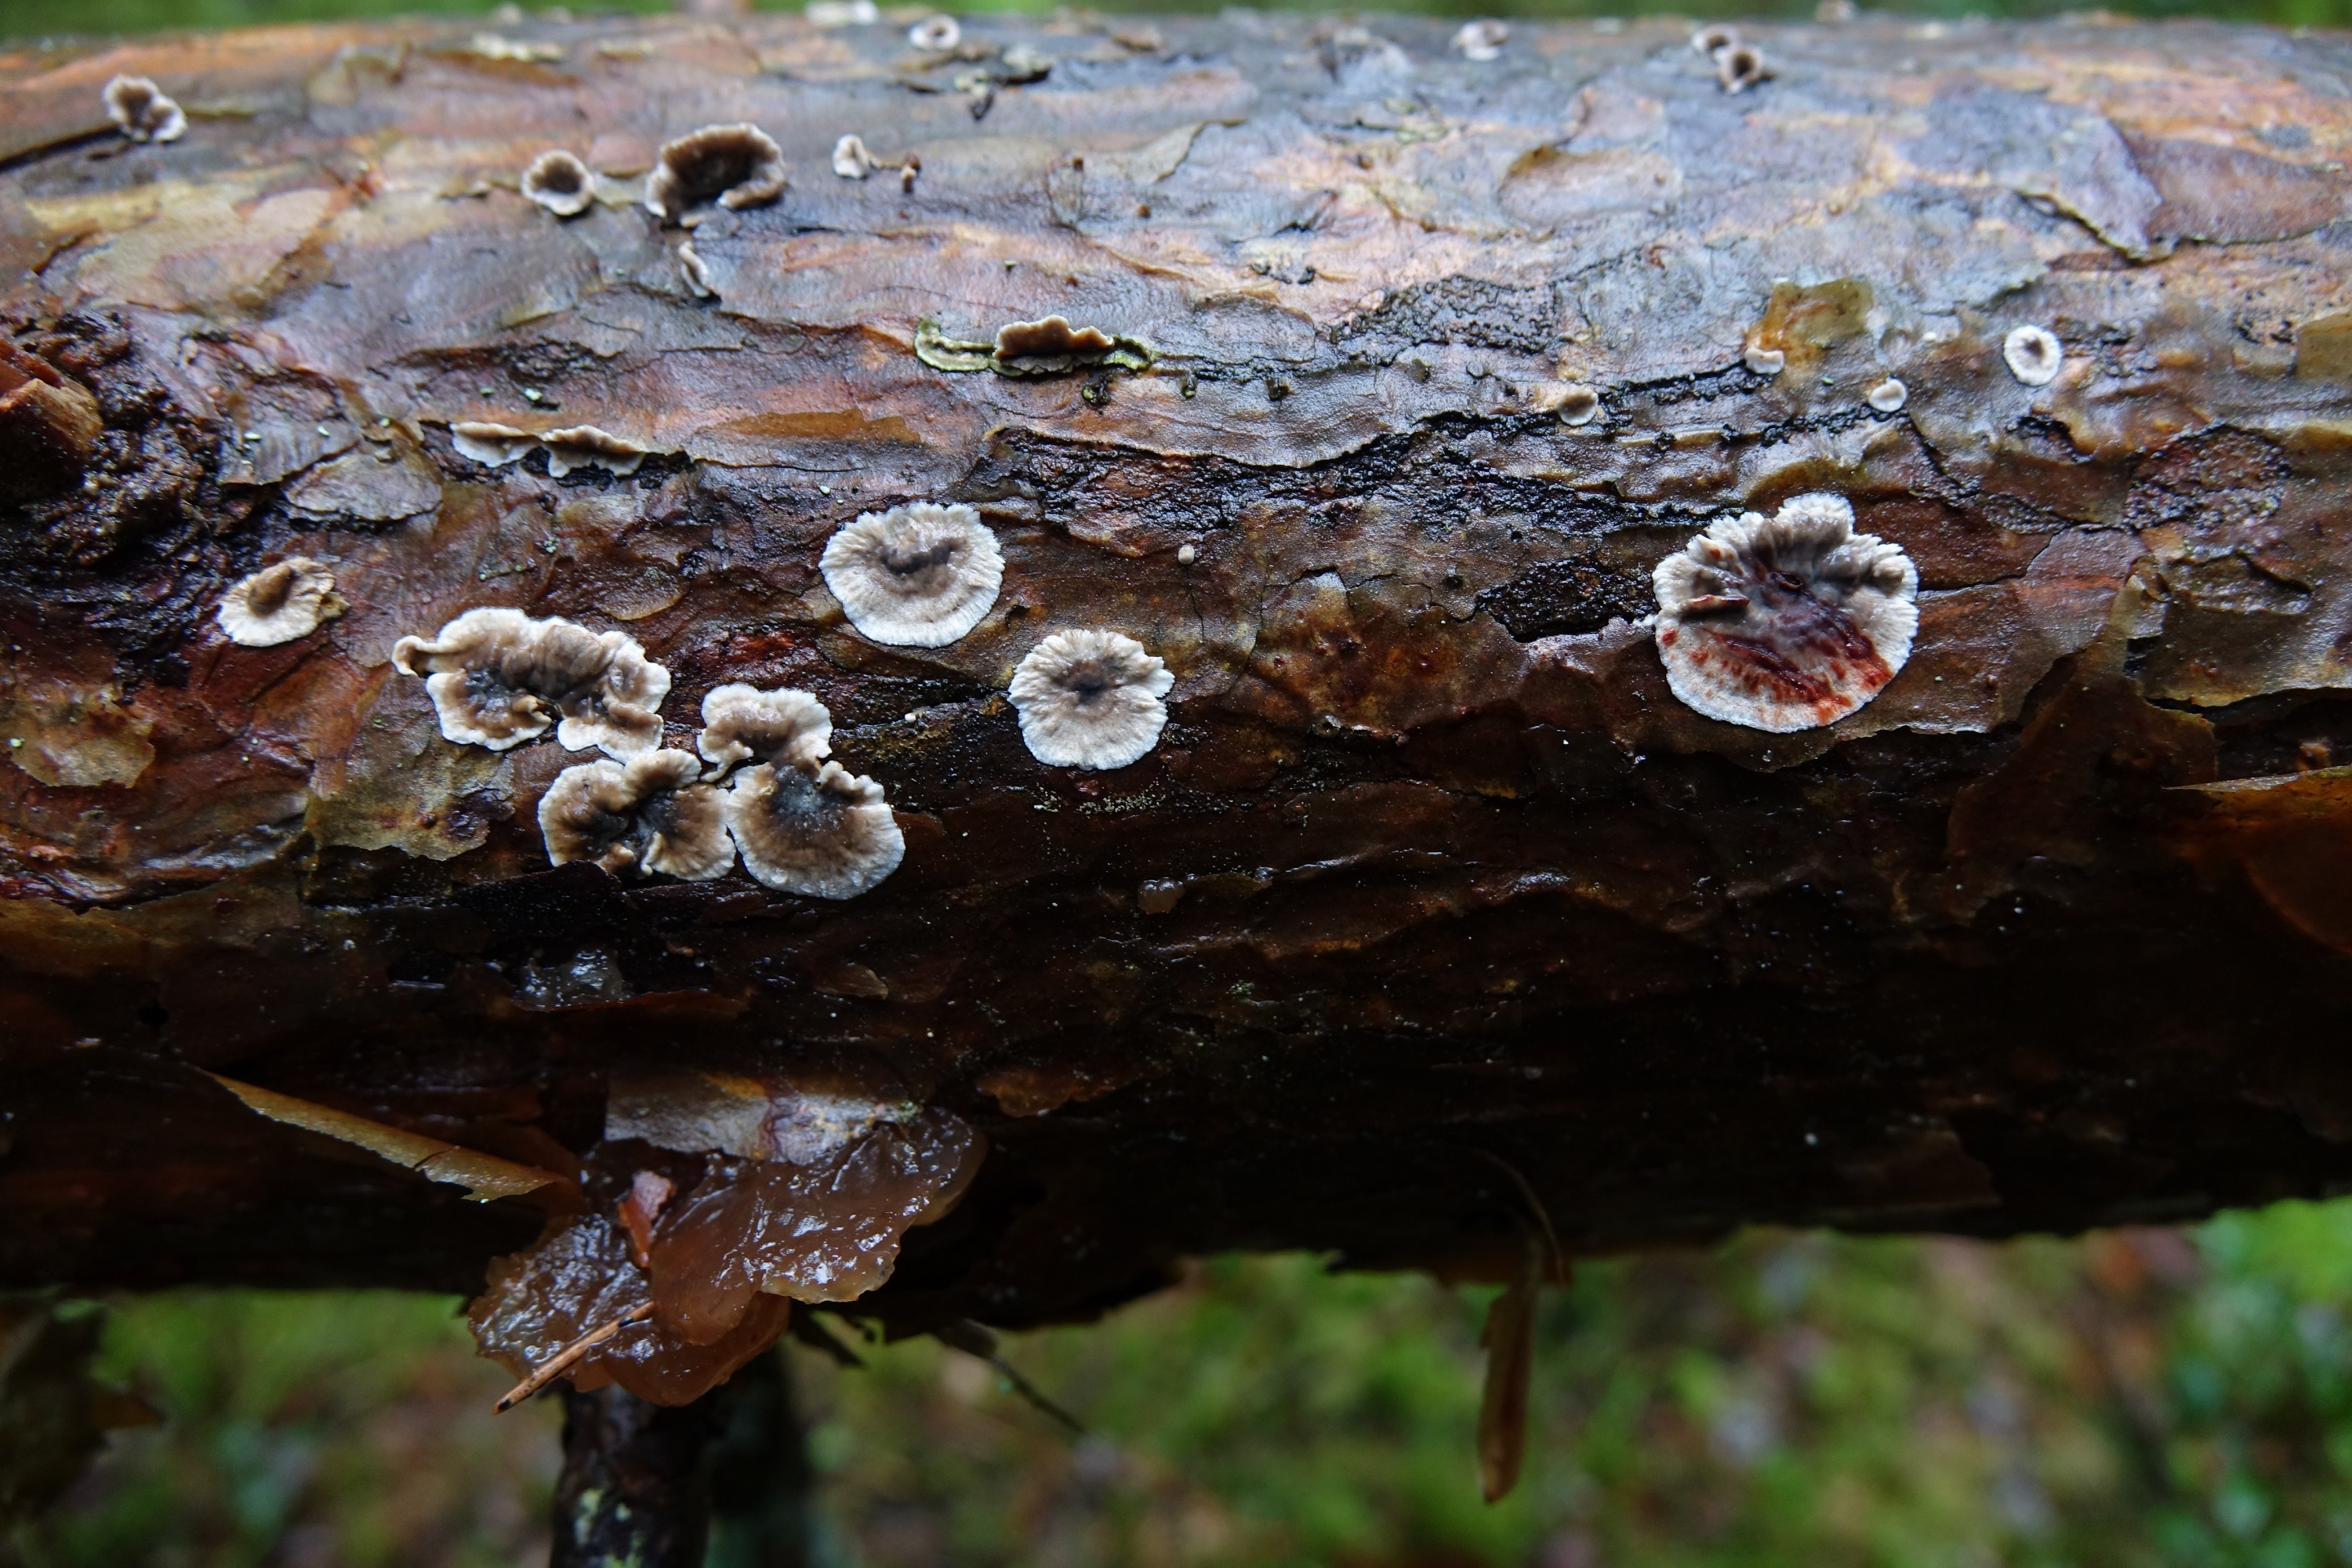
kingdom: Fungi
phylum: Basidiomycota
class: Agaricomycetes
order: Russulales
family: Stereaceae
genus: Stereum
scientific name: Stereum sanguinolentum
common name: Bleeding conifer crust
